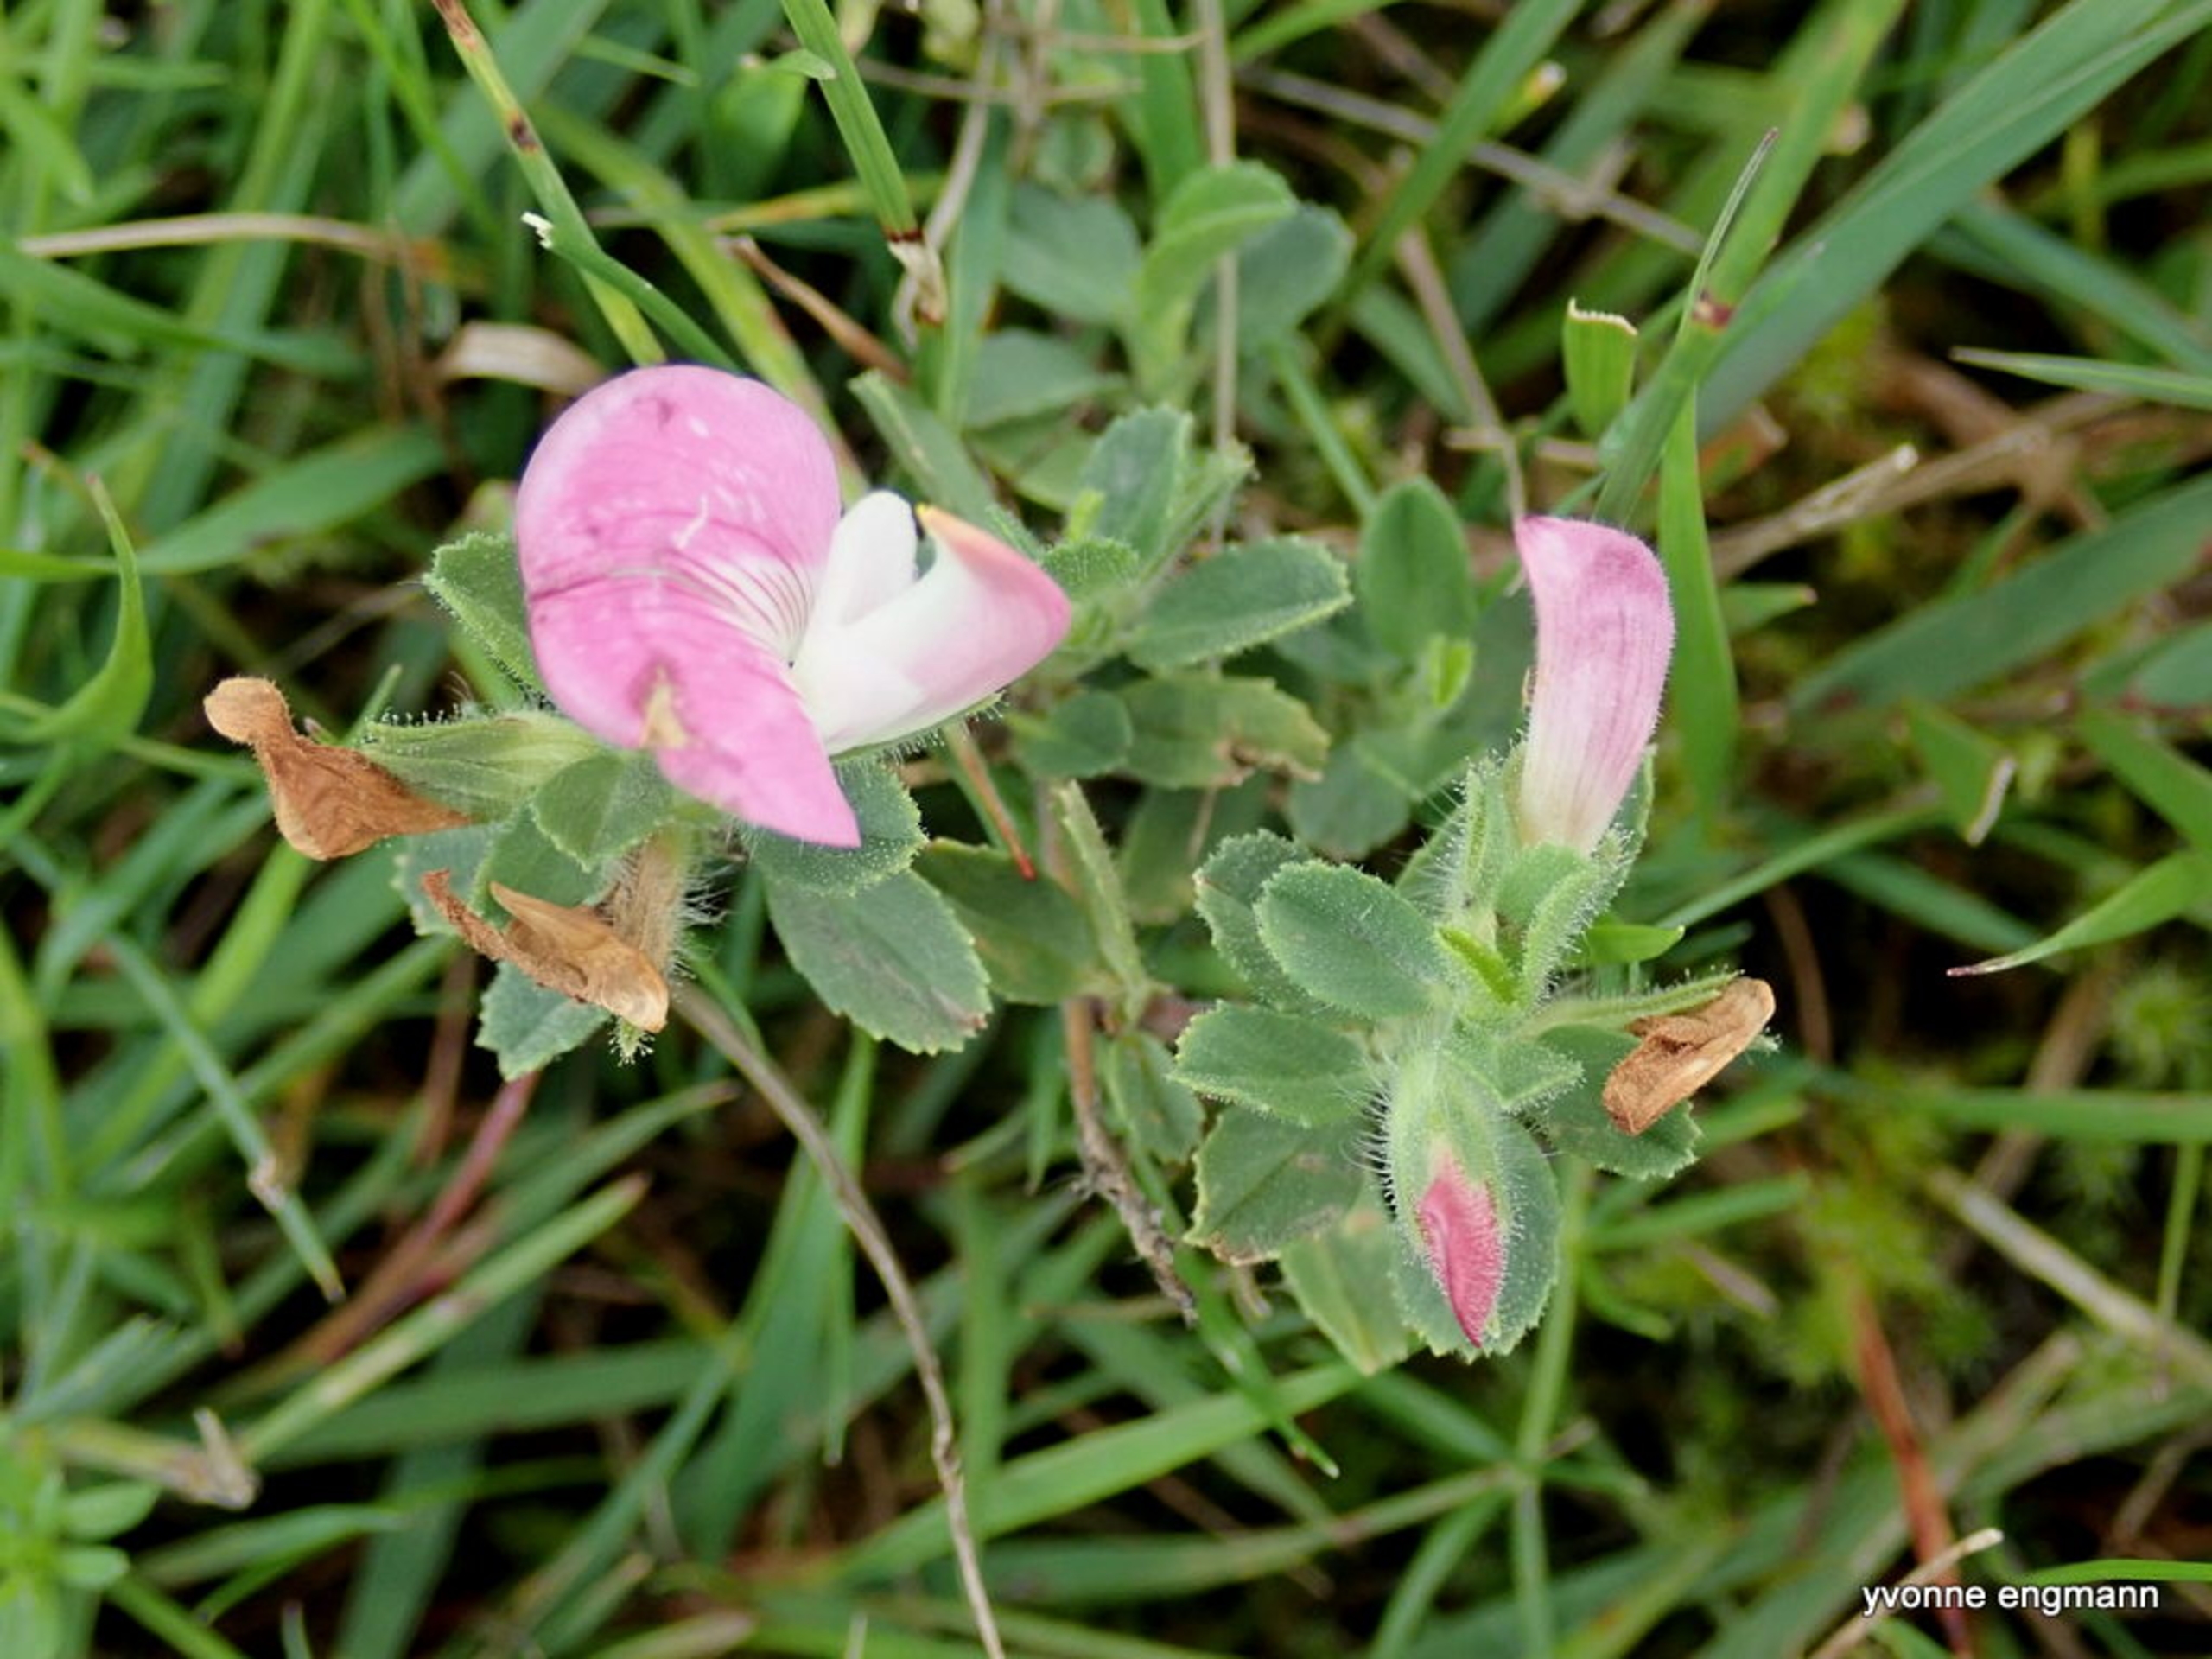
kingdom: Plantae
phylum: Tracheophyta
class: Magnoliopsida
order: Fabales
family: Fabaceae
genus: Ononis
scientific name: Ononis spinosa
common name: Krageklo
